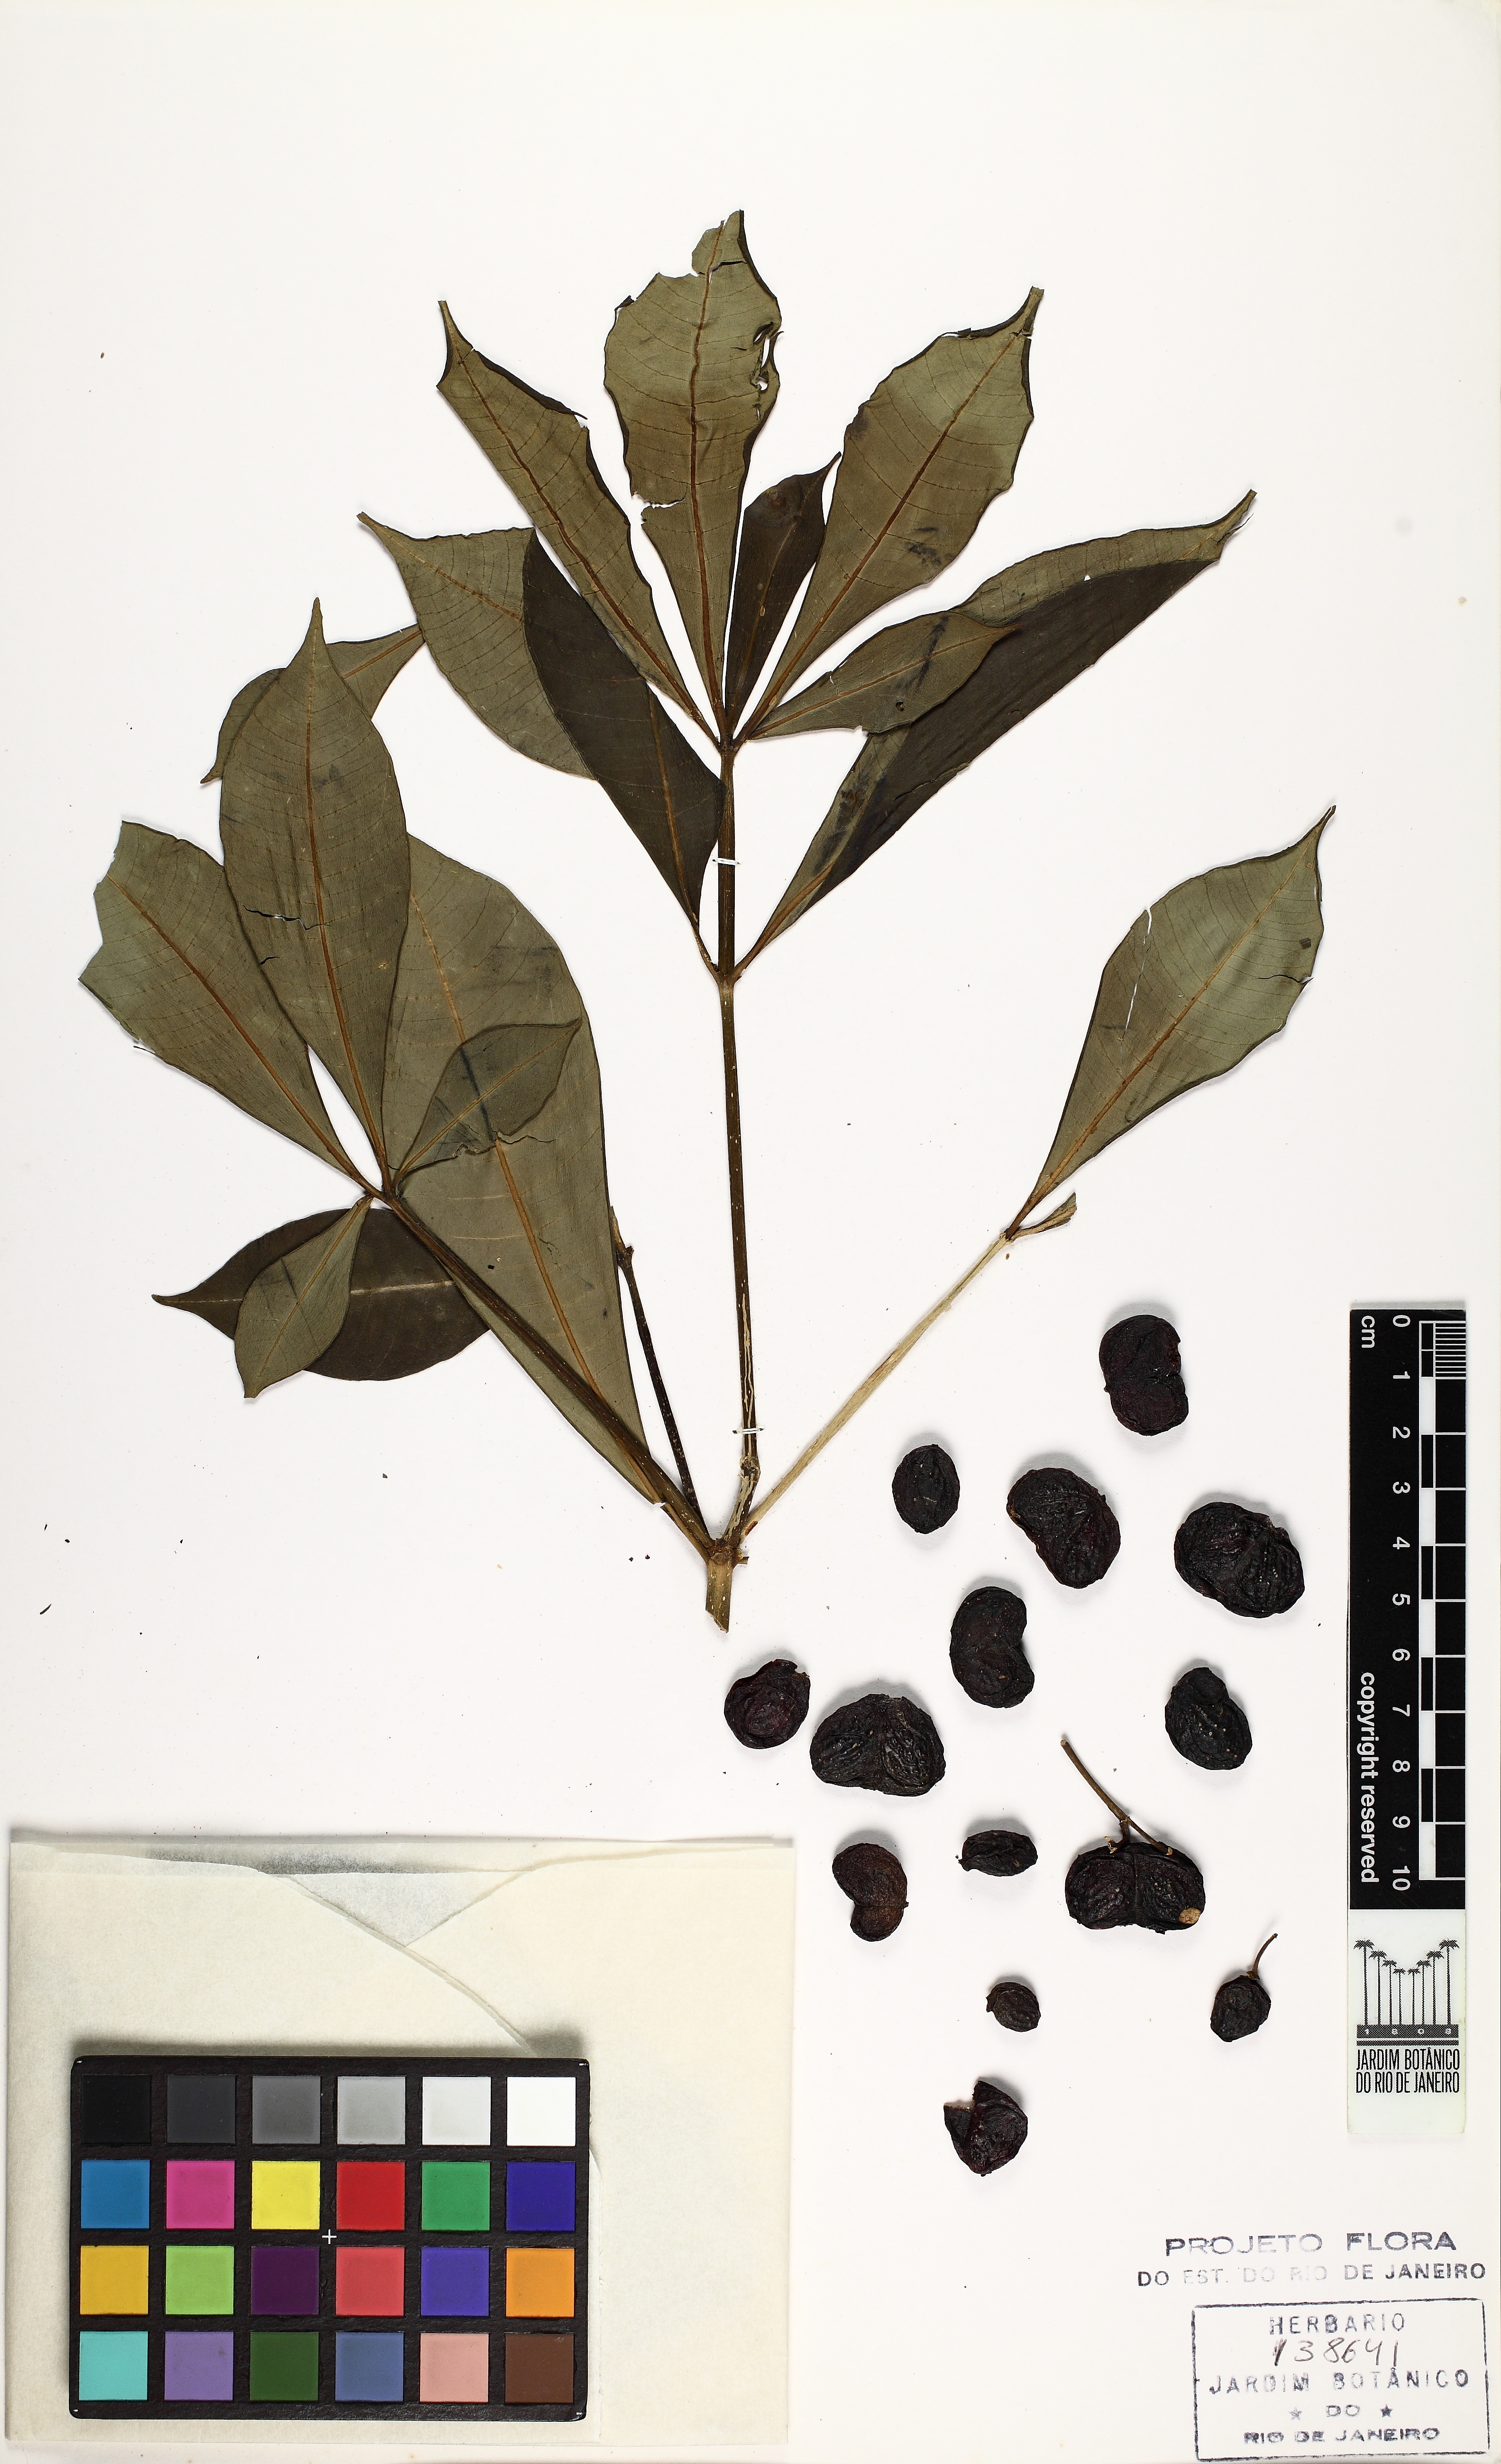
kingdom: Plantae
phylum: Tracheophyta
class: Magnoliopsida
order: Gentianales
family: Apocynaceae
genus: Rauvolfia
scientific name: Rauvolfia grandiflora
